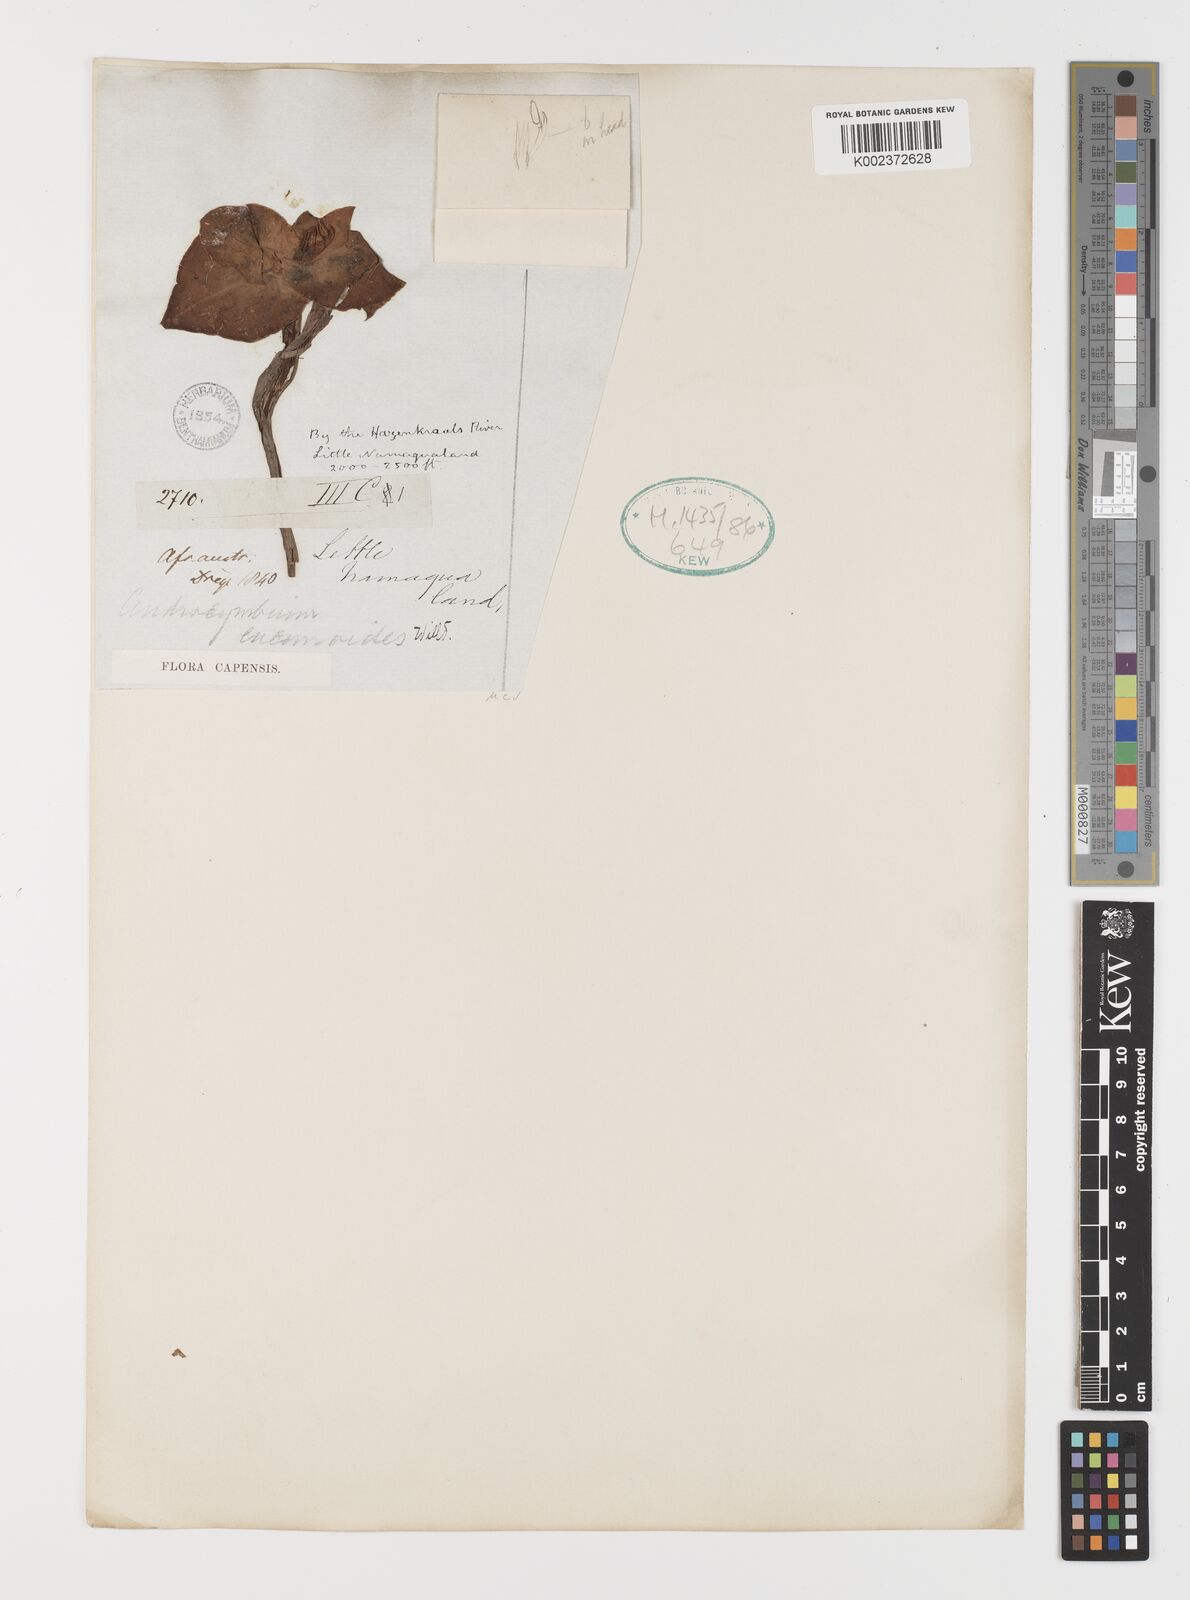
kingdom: Plantae
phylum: Tracheophyta
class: Liliopsida
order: Liliales
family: Colchicaceae
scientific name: Colchicaceae
